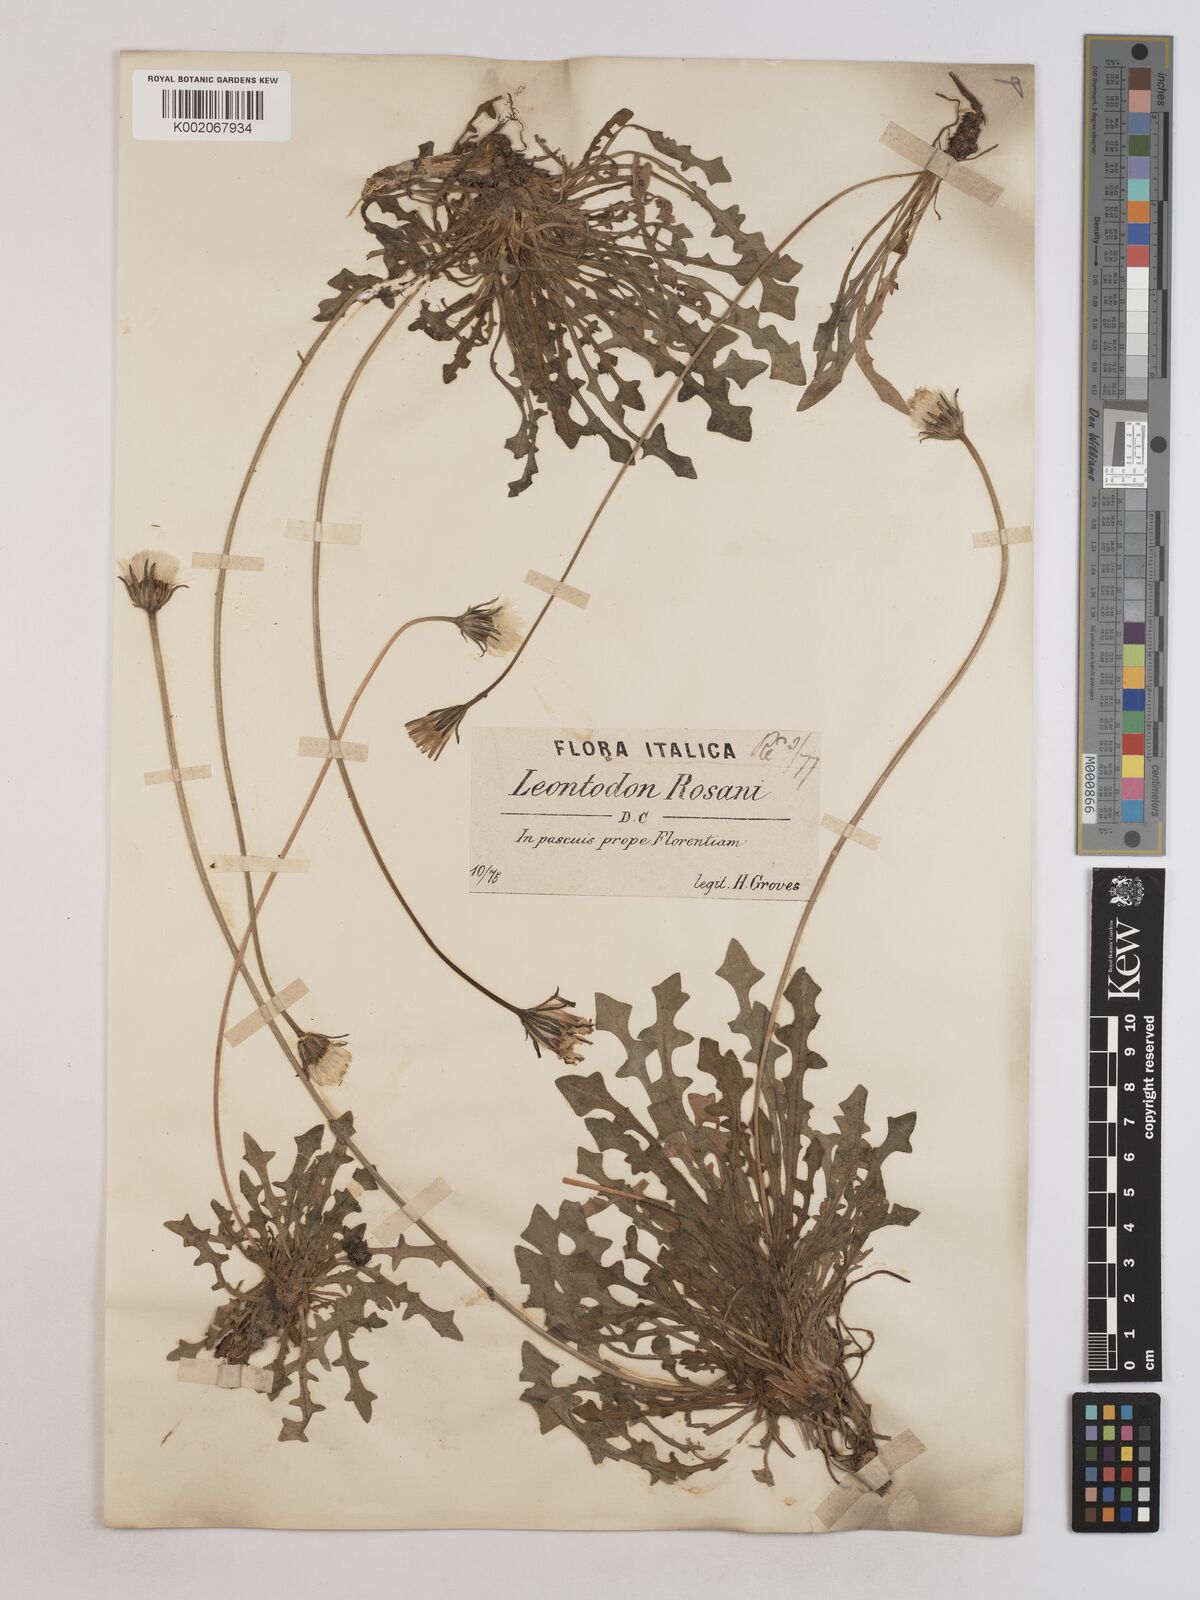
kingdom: Plantae
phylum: Tracheophyta
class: Magnoliopsida
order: Asterales
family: Asteraceae
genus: Leontodon
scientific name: Leontodon rosanoi
